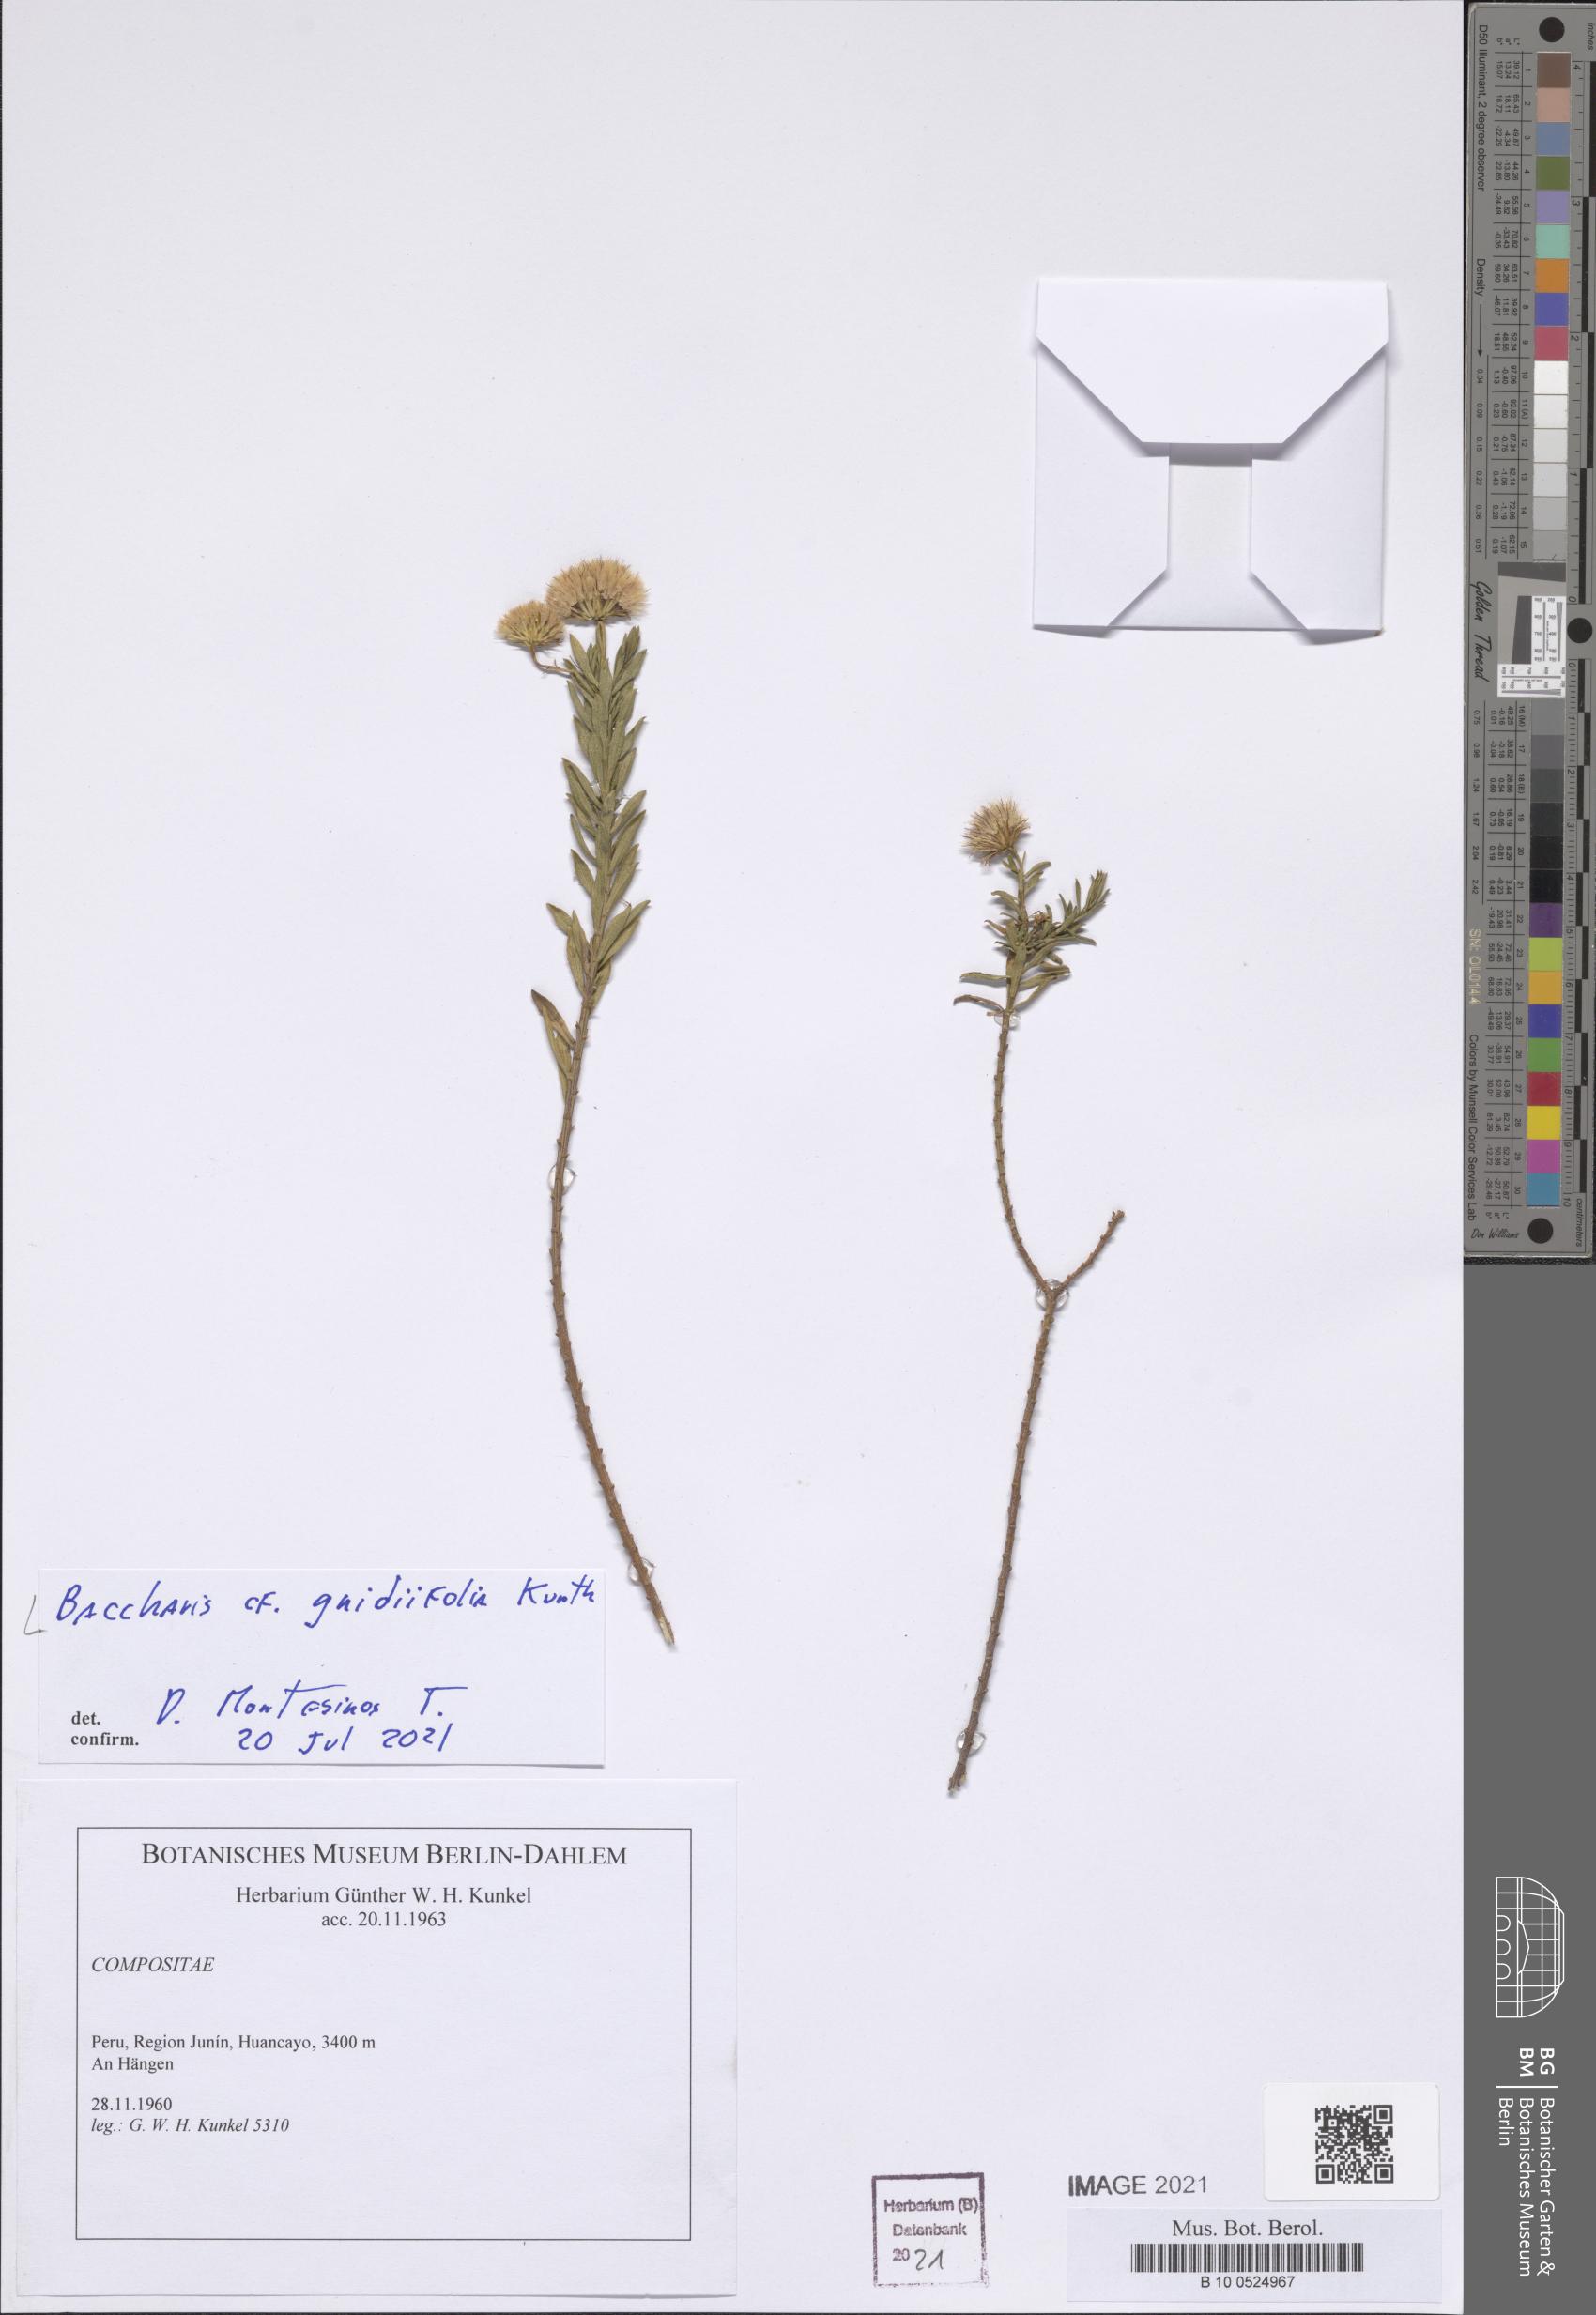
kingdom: Plantae
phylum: Tracheophyta
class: Magnoliopsida
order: Asterales
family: Asteraceae
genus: Baccharis
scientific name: Baccharis gnidiifolia
